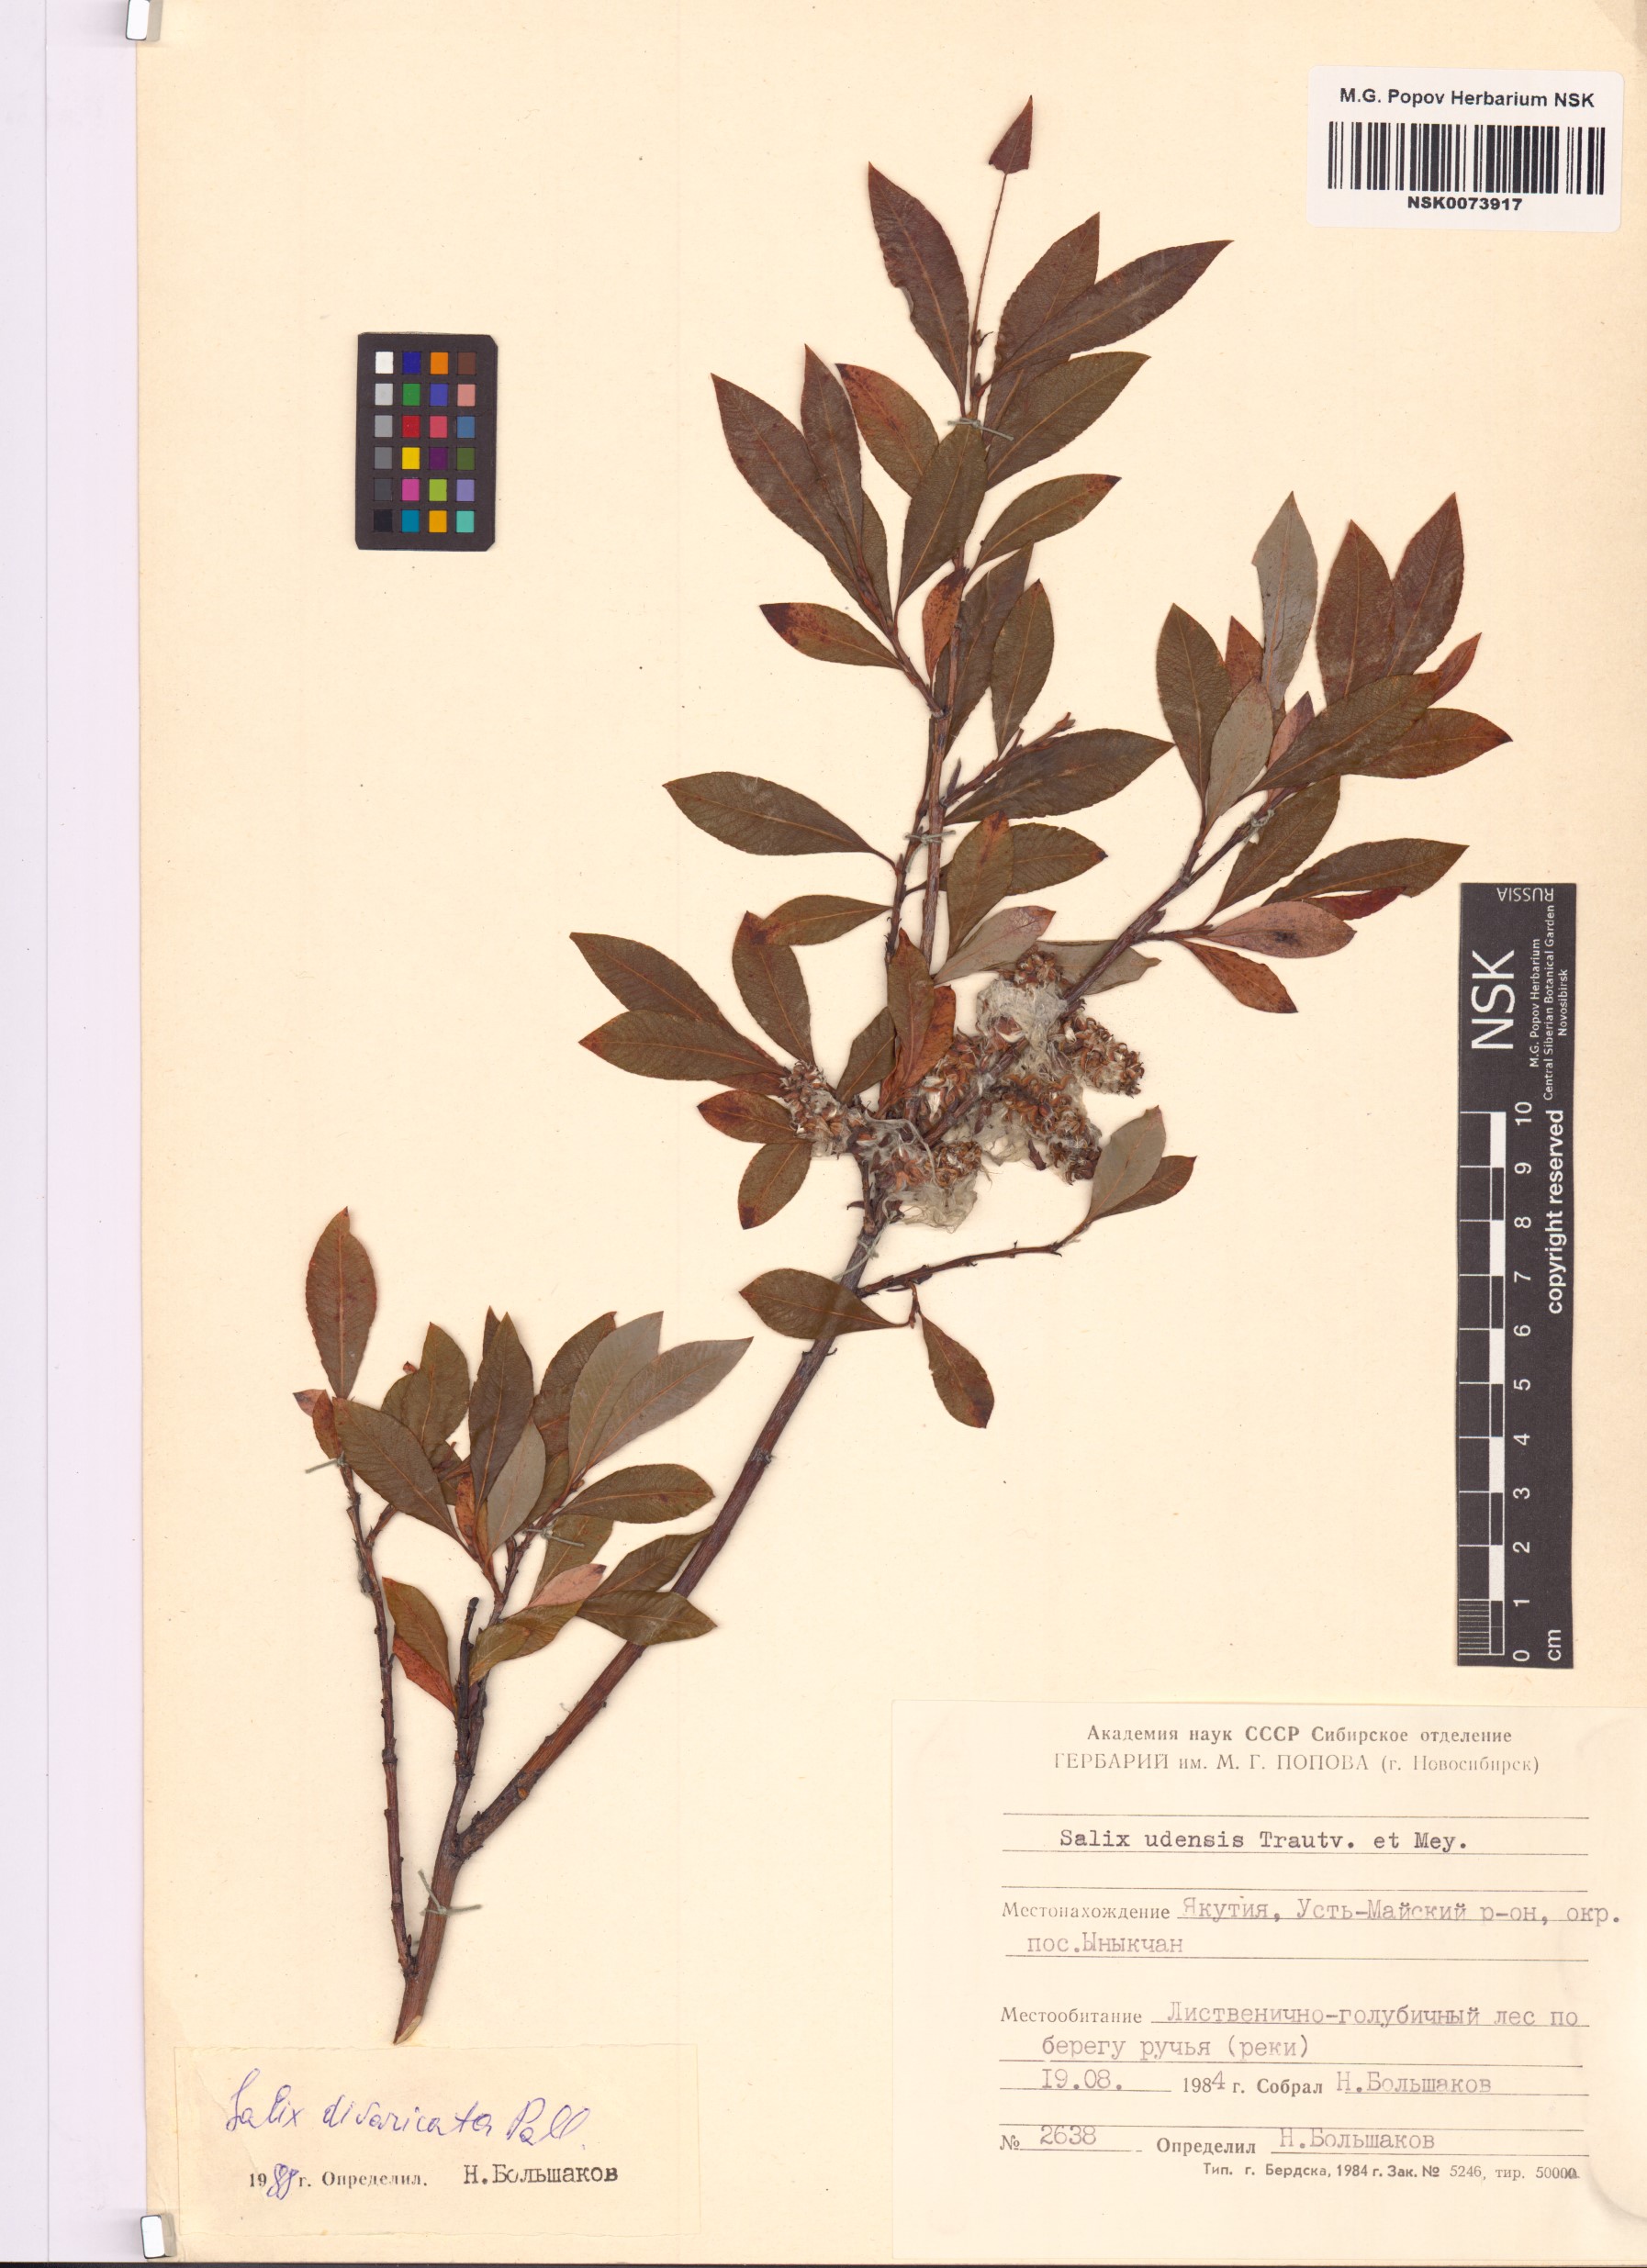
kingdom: Plantae
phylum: Tracheophyta
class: Magnoliopsida
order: Malpighiales
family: Salicaceae
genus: Salix
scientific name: Salix divaricata
